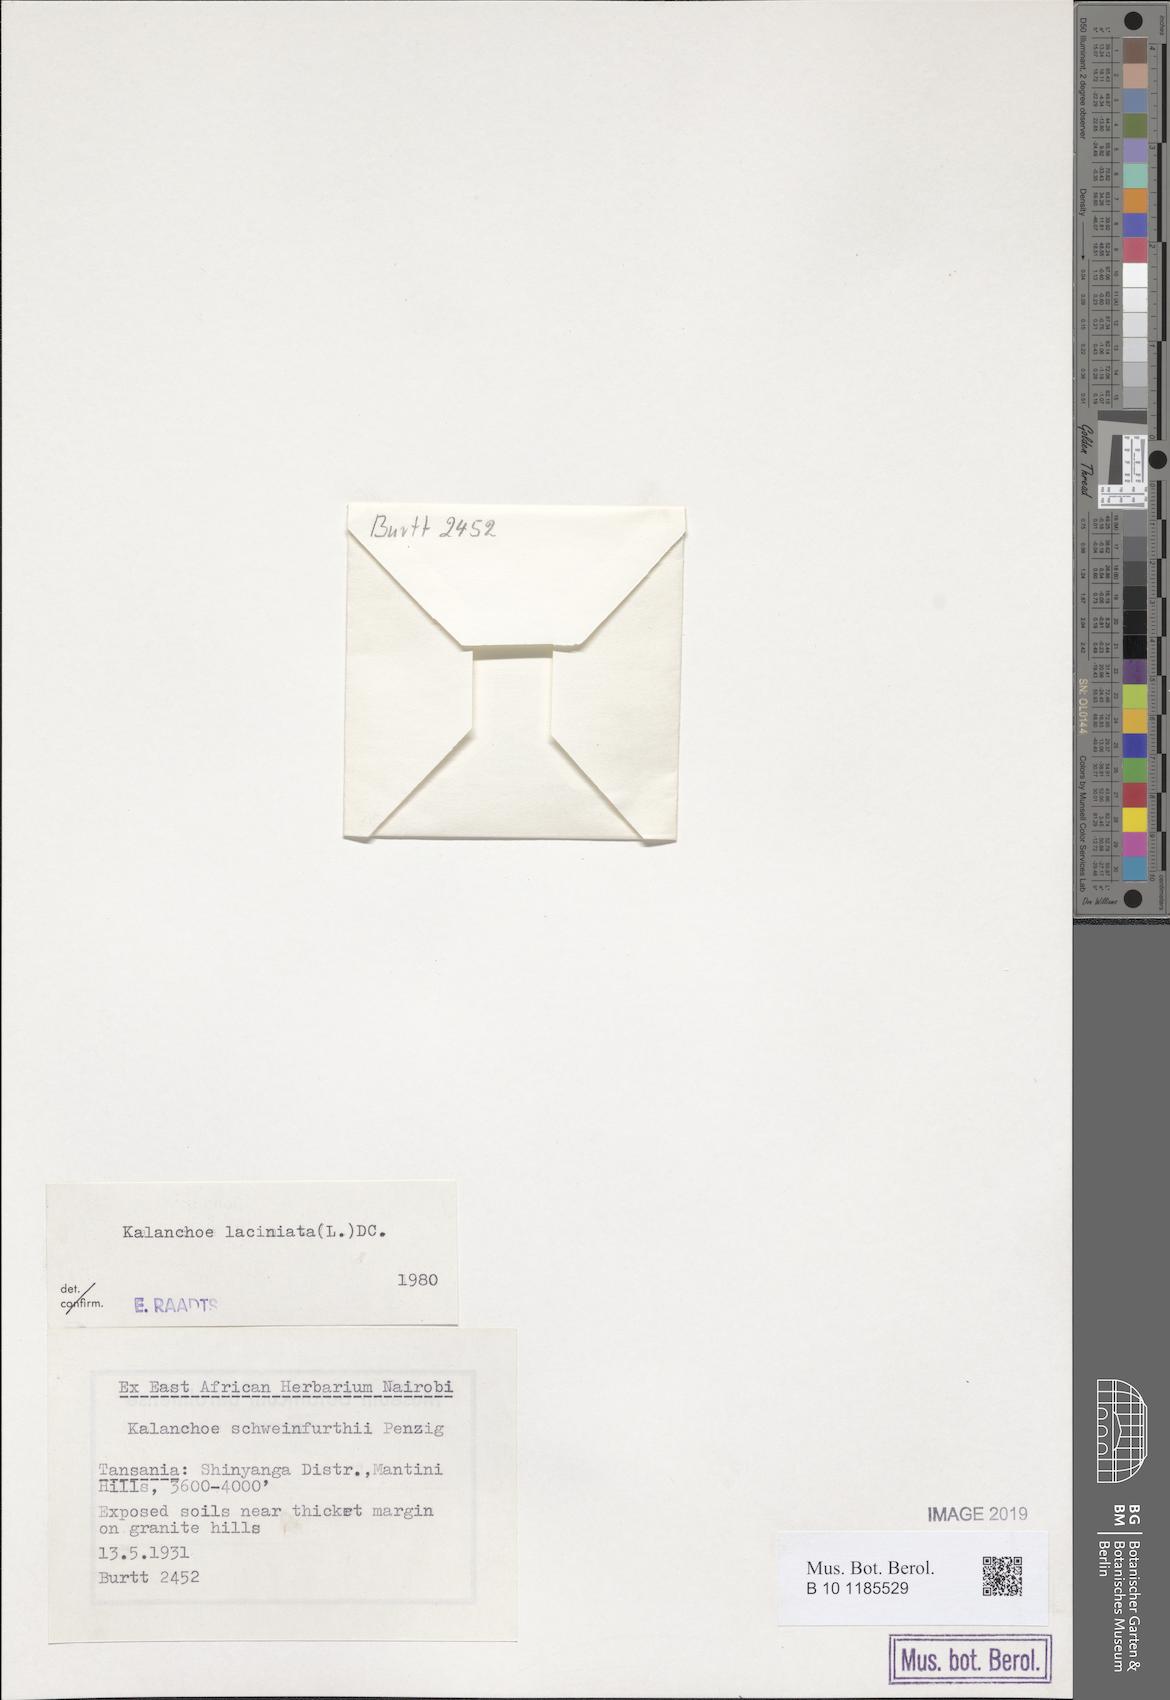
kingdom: Plantae
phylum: Tracheophyta
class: Magnoliopsida
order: Saxifragales
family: Crassulaceae
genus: Kalanchoe
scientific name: Kalanchoe laciniata
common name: Christmastree plant
